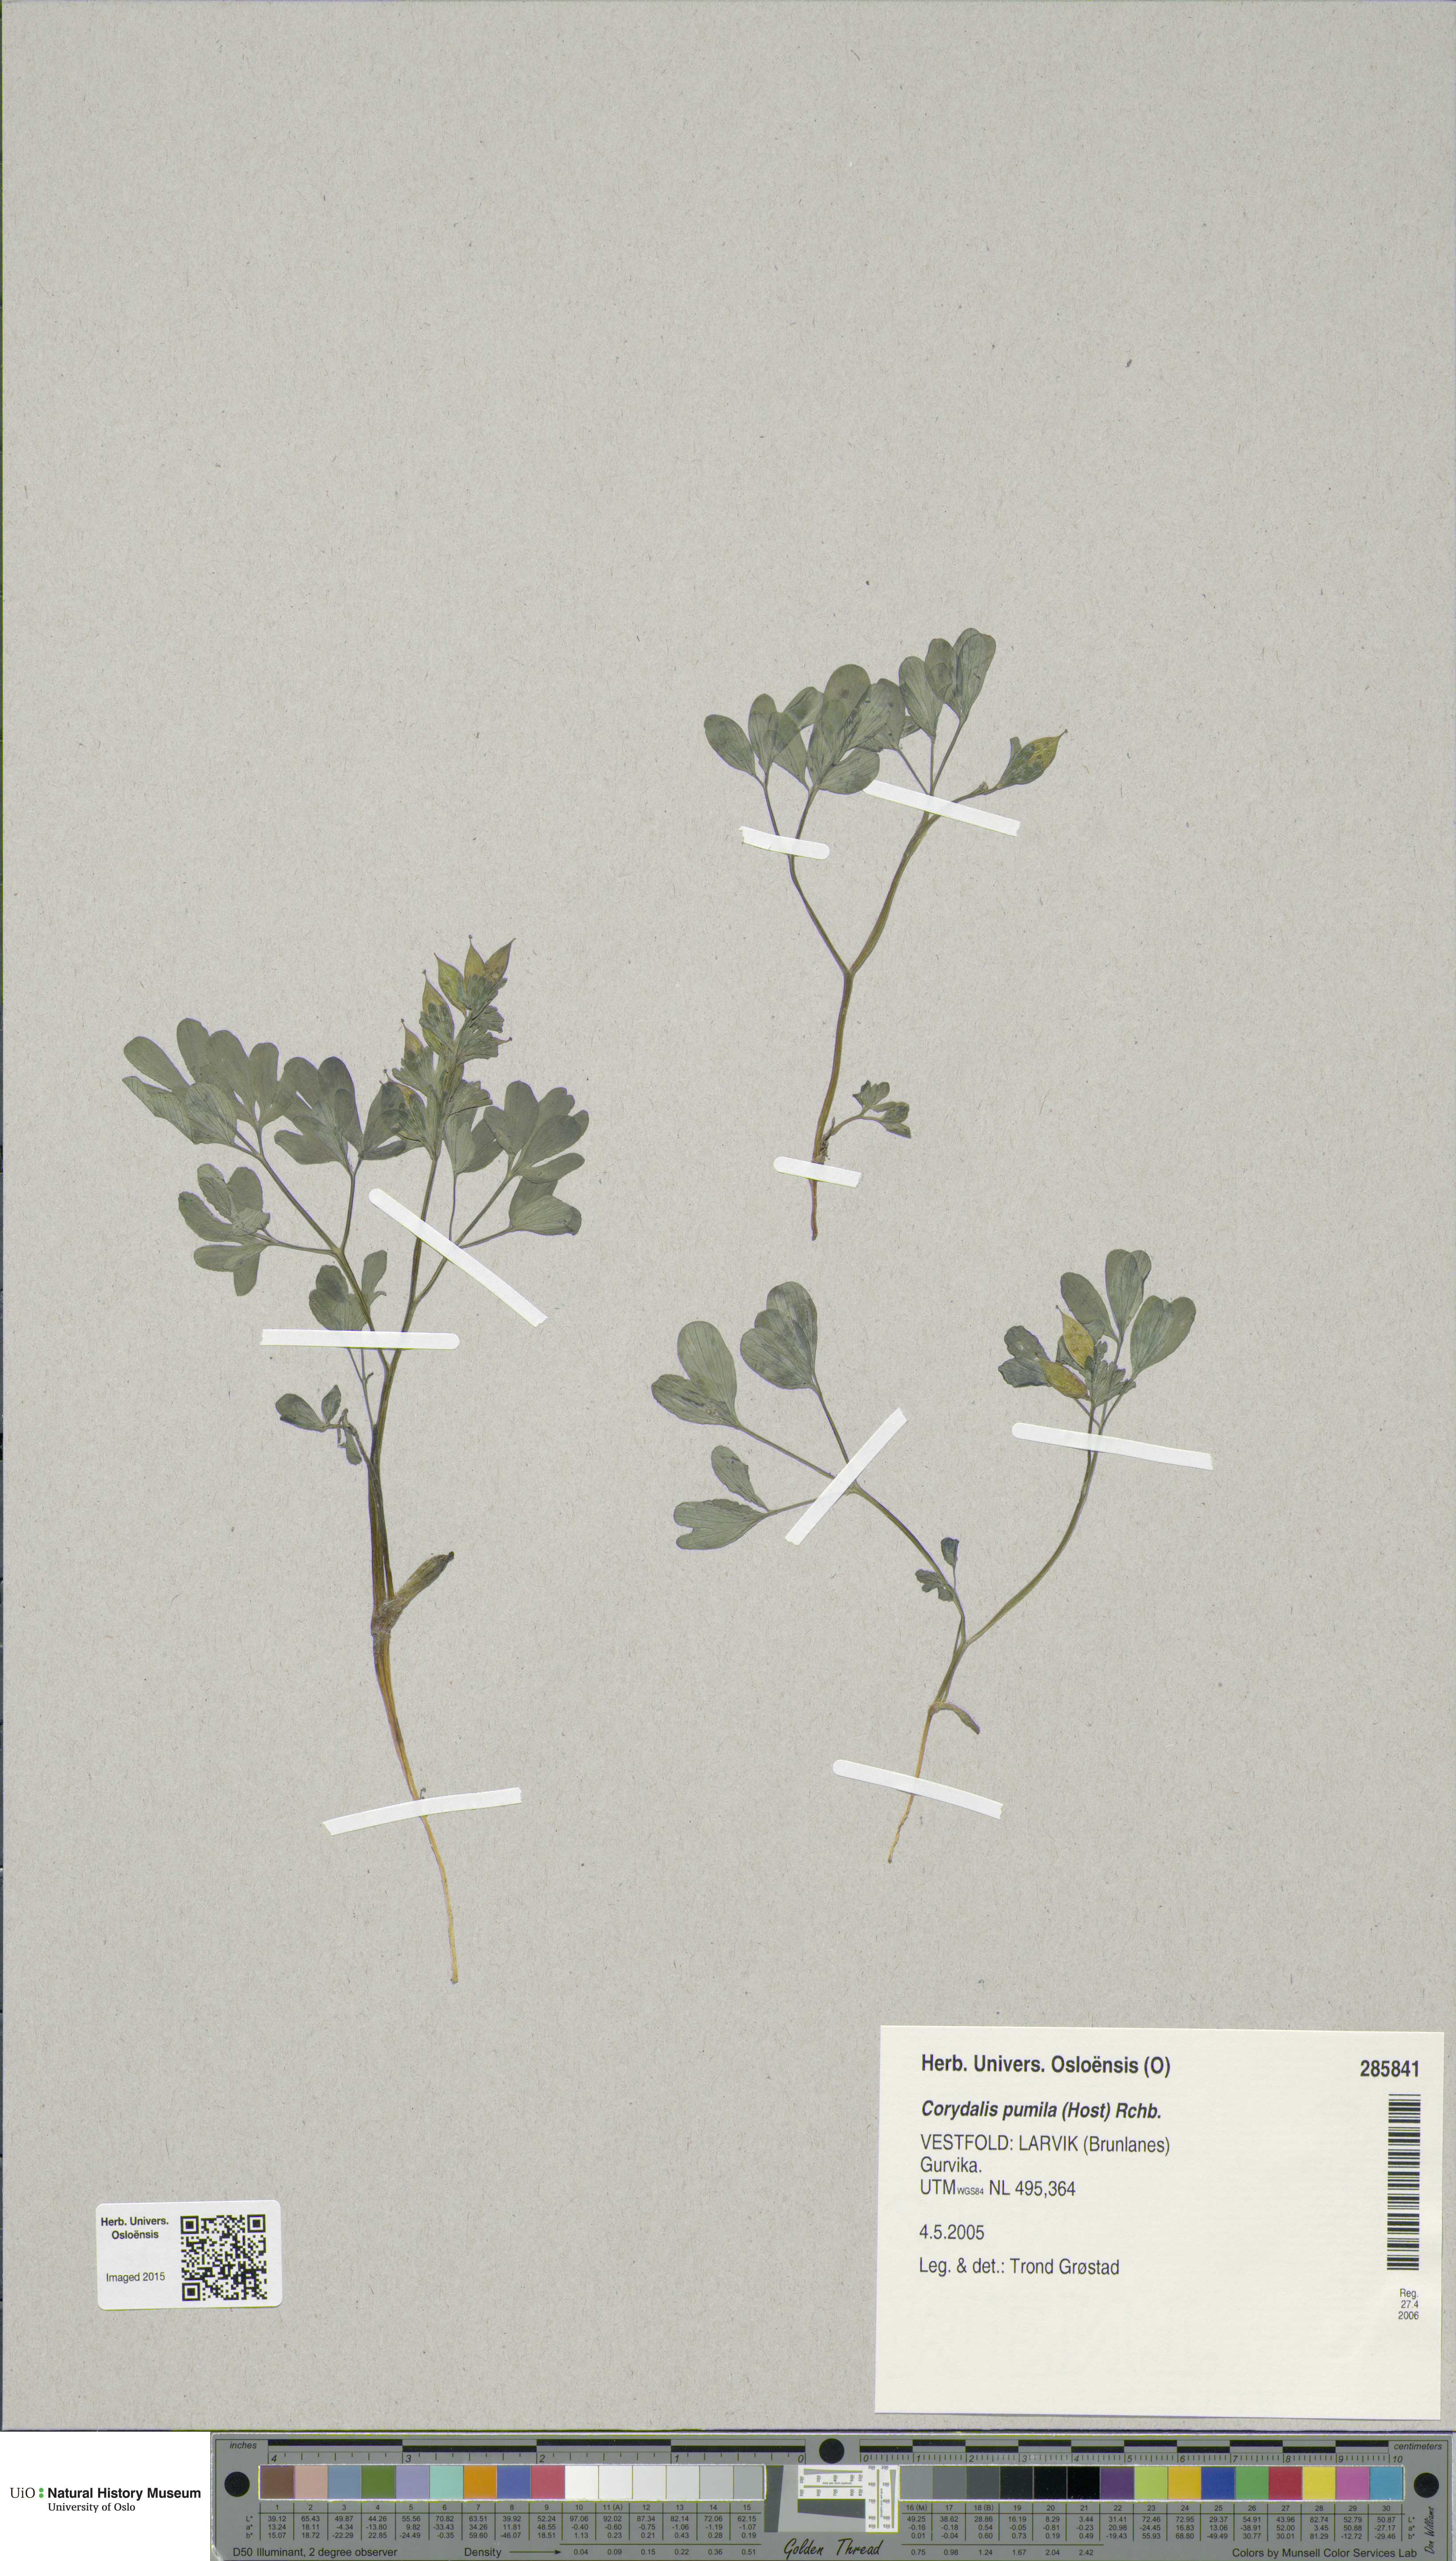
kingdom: Plantae
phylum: Tracheophyta
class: Magnoliopsida
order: Ranunculales
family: Papaveraceae
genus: Corydalis
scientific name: Corydalis pumila
